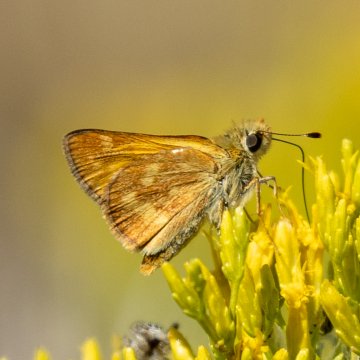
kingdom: Animalia
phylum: Arthropoda
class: Insecta
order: Lepidoptera
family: Hesperiidae
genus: Ochlodes
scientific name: Ochlodes sylvanoides
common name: Woodland Skipper
